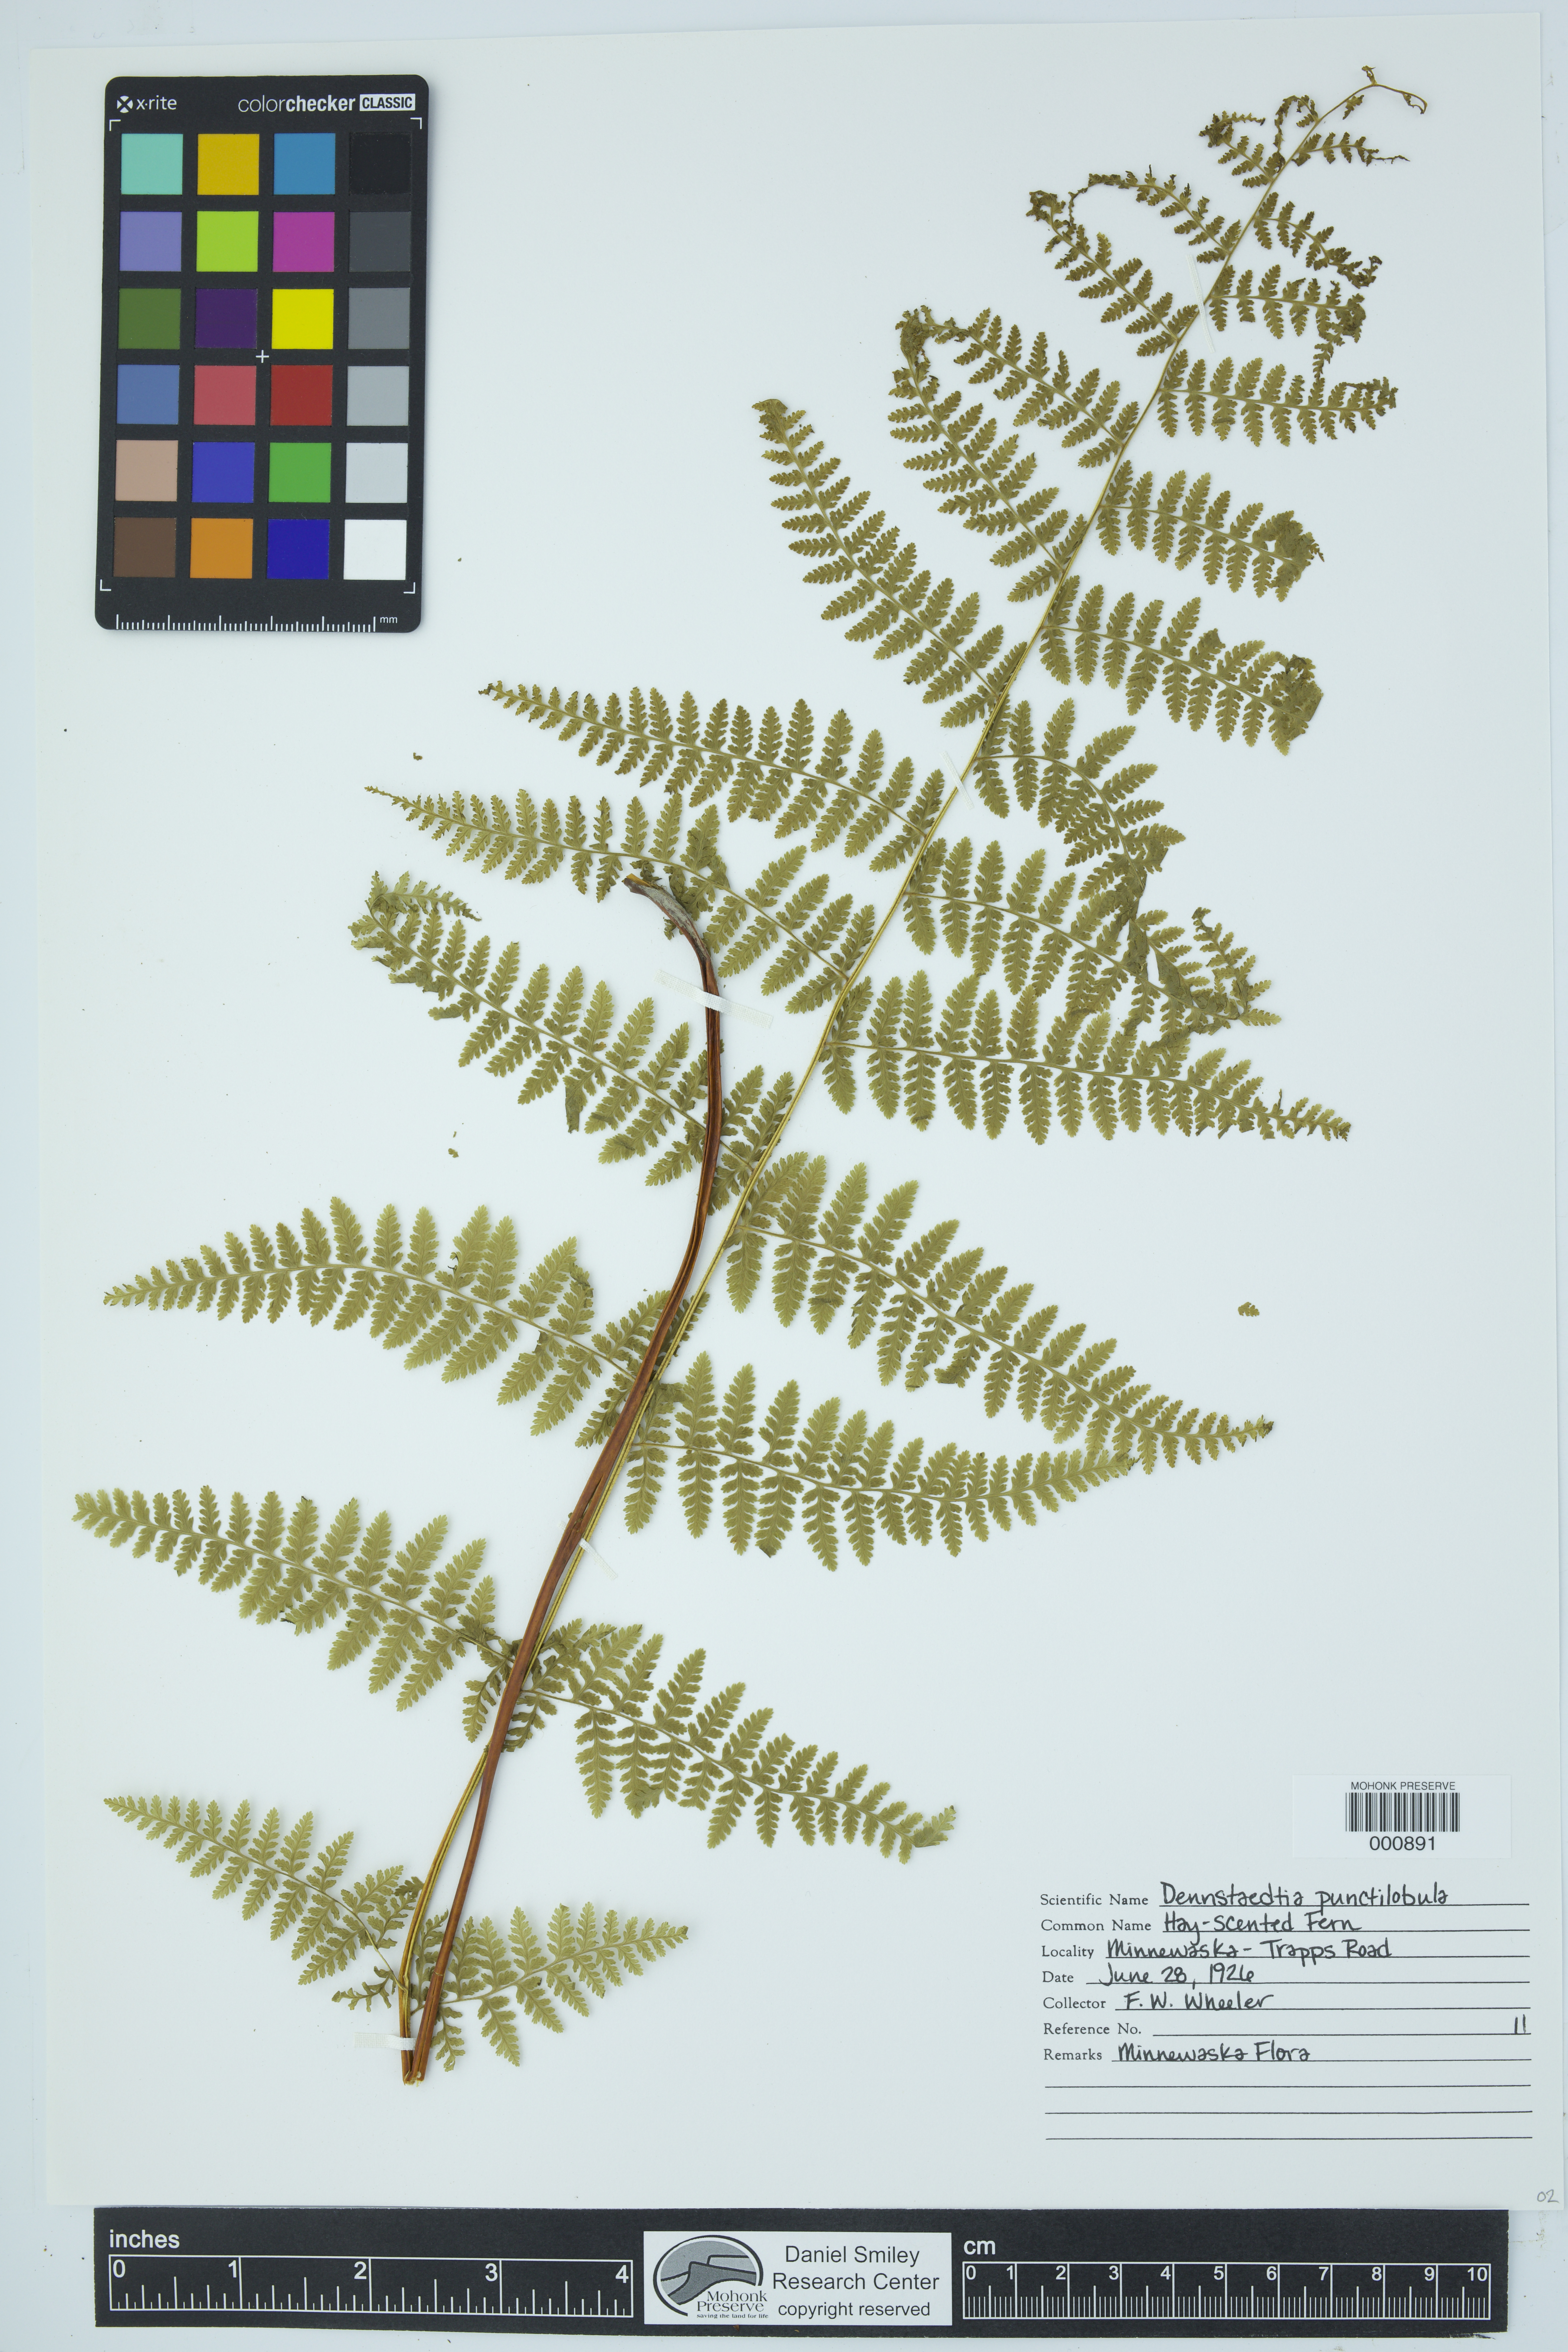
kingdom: Plantae
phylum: Tracheophyta
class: Polypodiopsida
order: Polypodiales
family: Dennstaedtiaceae
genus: Sitobolium
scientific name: Sitobolium punctilobum
